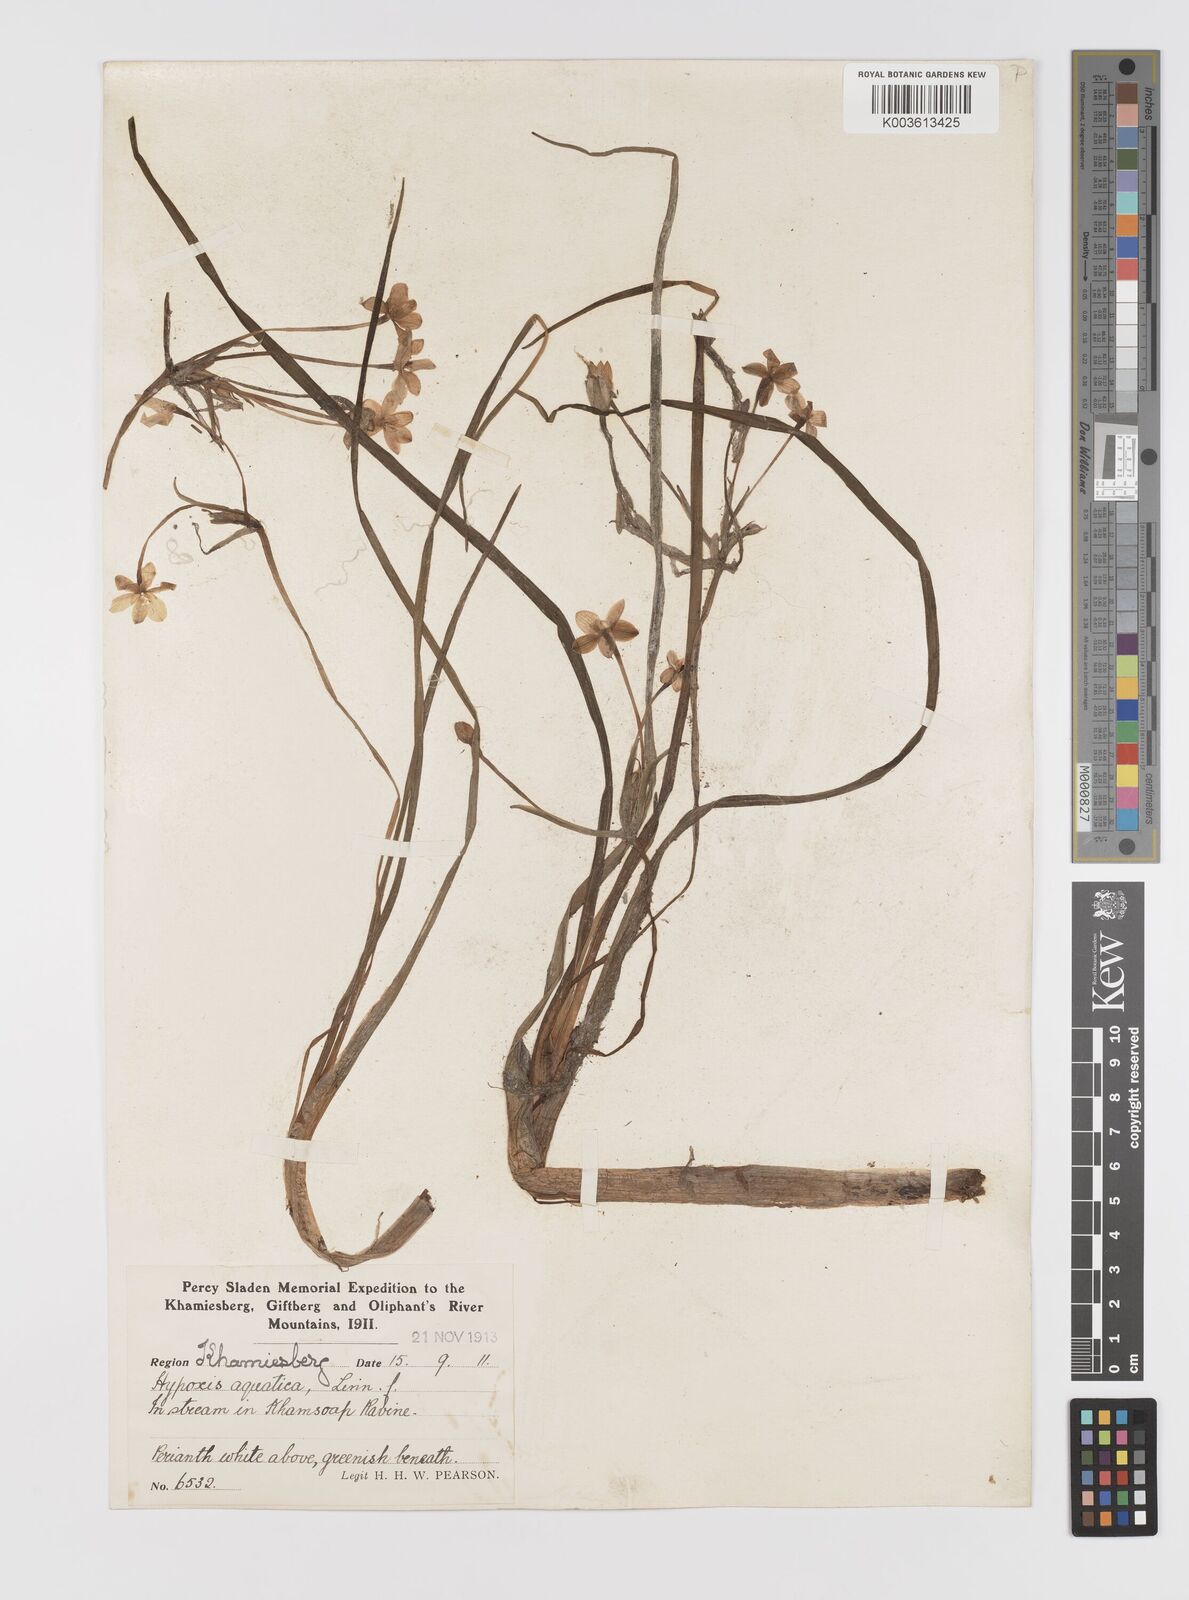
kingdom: Plantae
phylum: Tracheophyta
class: Liliopsida
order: Asparagales
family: Hypoxidaceae
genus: Pauridia
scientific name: Pauridia aquatica
